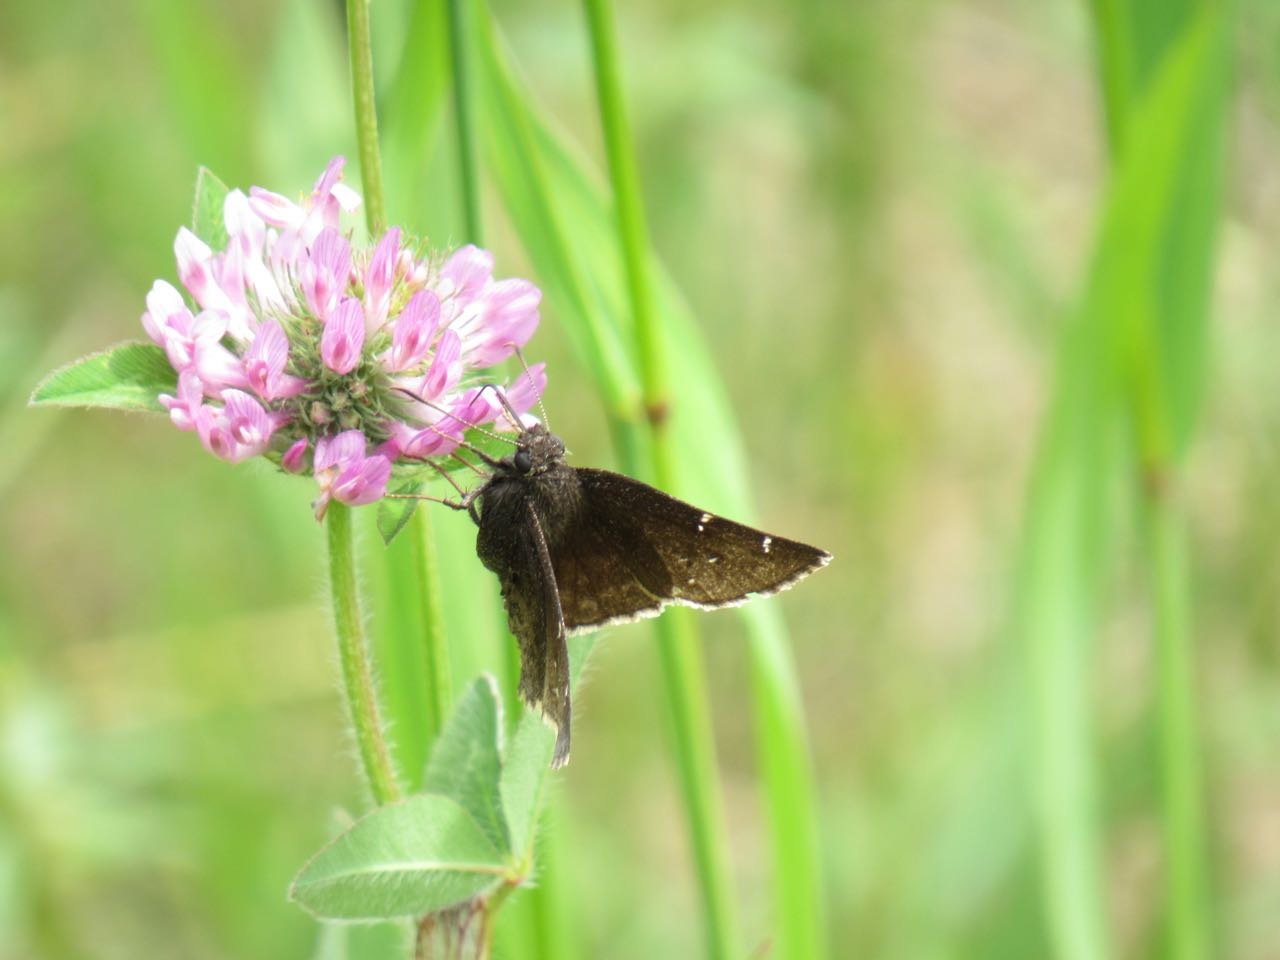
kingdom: Animalia
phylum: Arthropoda
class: Insecta
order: Lepidoptera
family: Hesperiidae
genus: Autochton
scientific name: Autochton
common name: Northern Cloudywing
